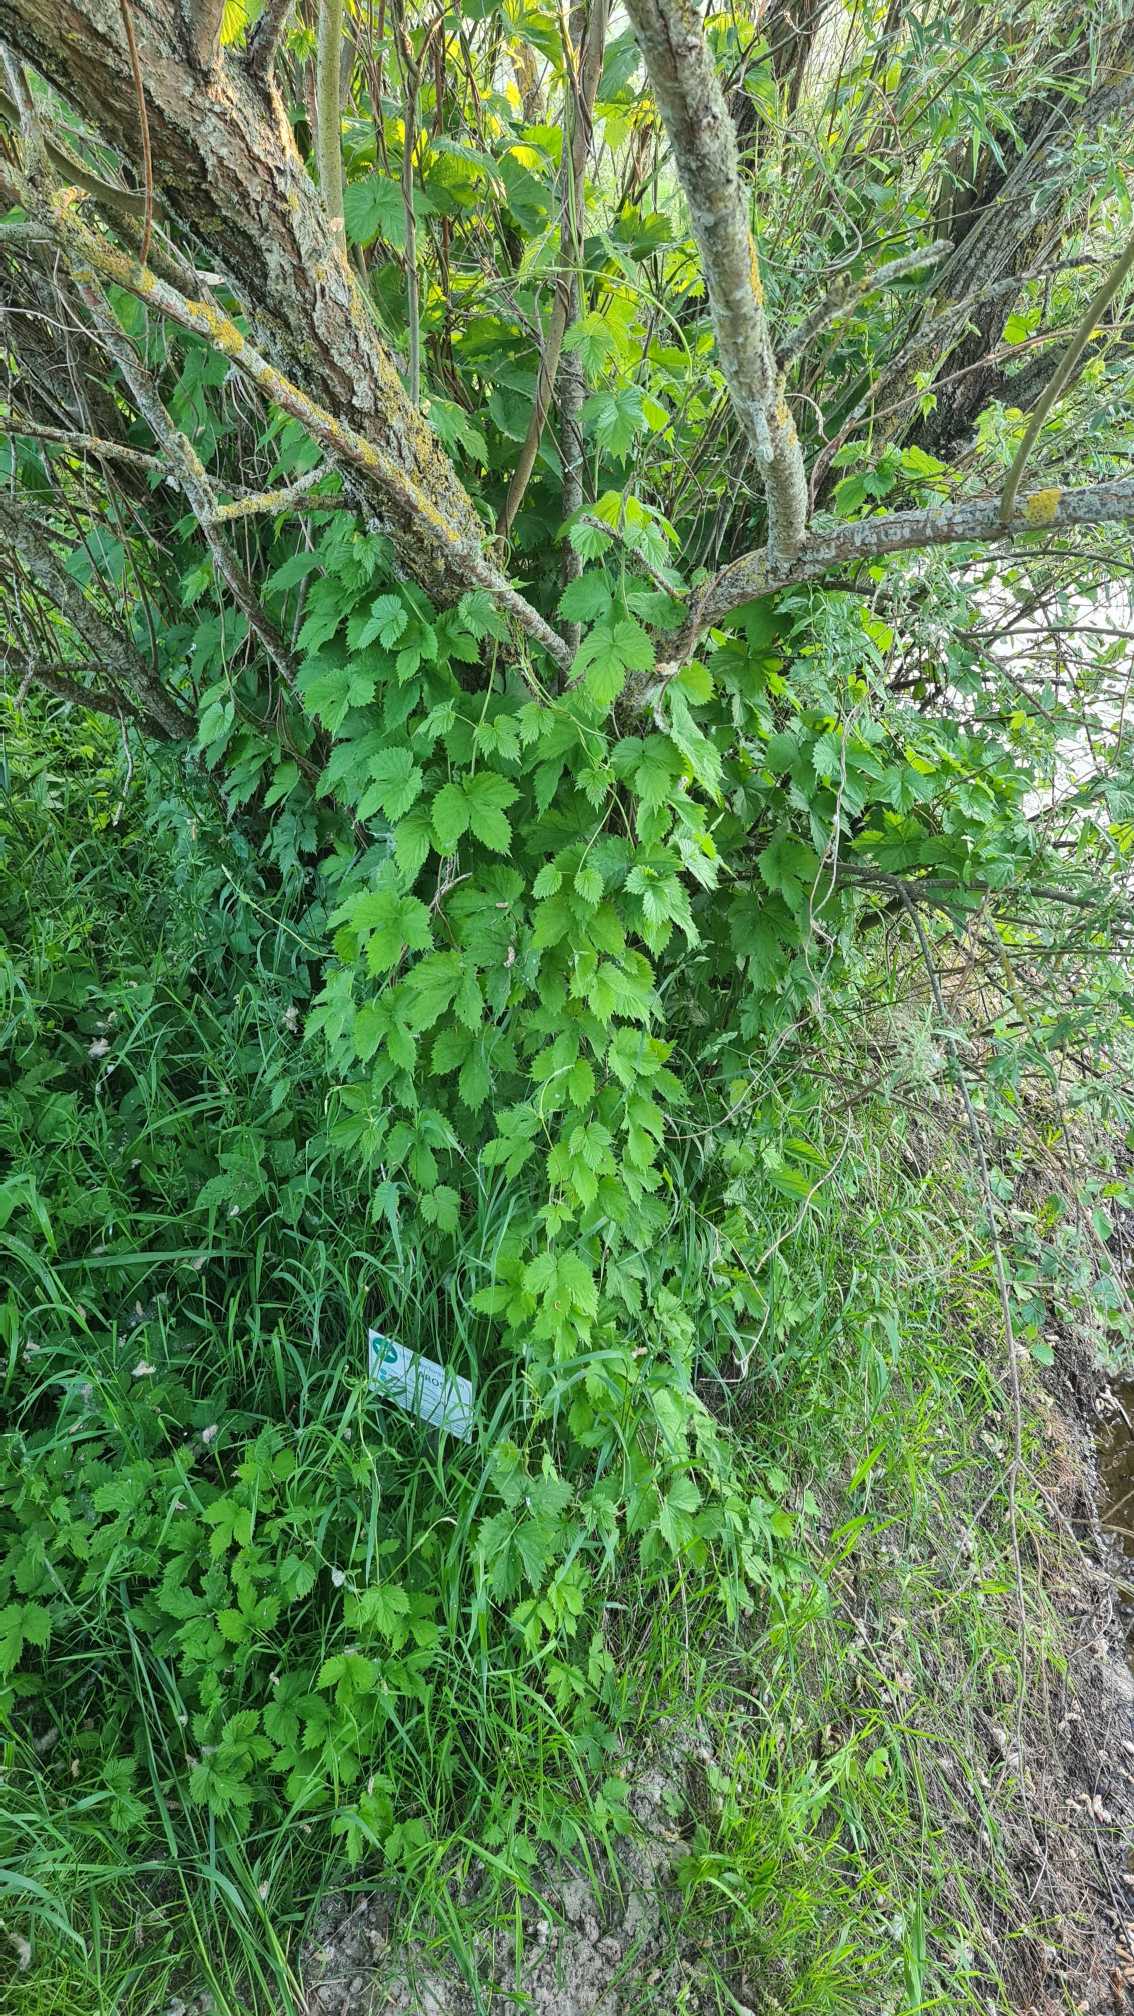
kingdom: Plantae
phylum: Tracheophyta
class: Magnoliopsida
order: Rosales
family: Cannabaceae
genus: Humulus
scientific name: Humulus lupulus
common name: Humle
